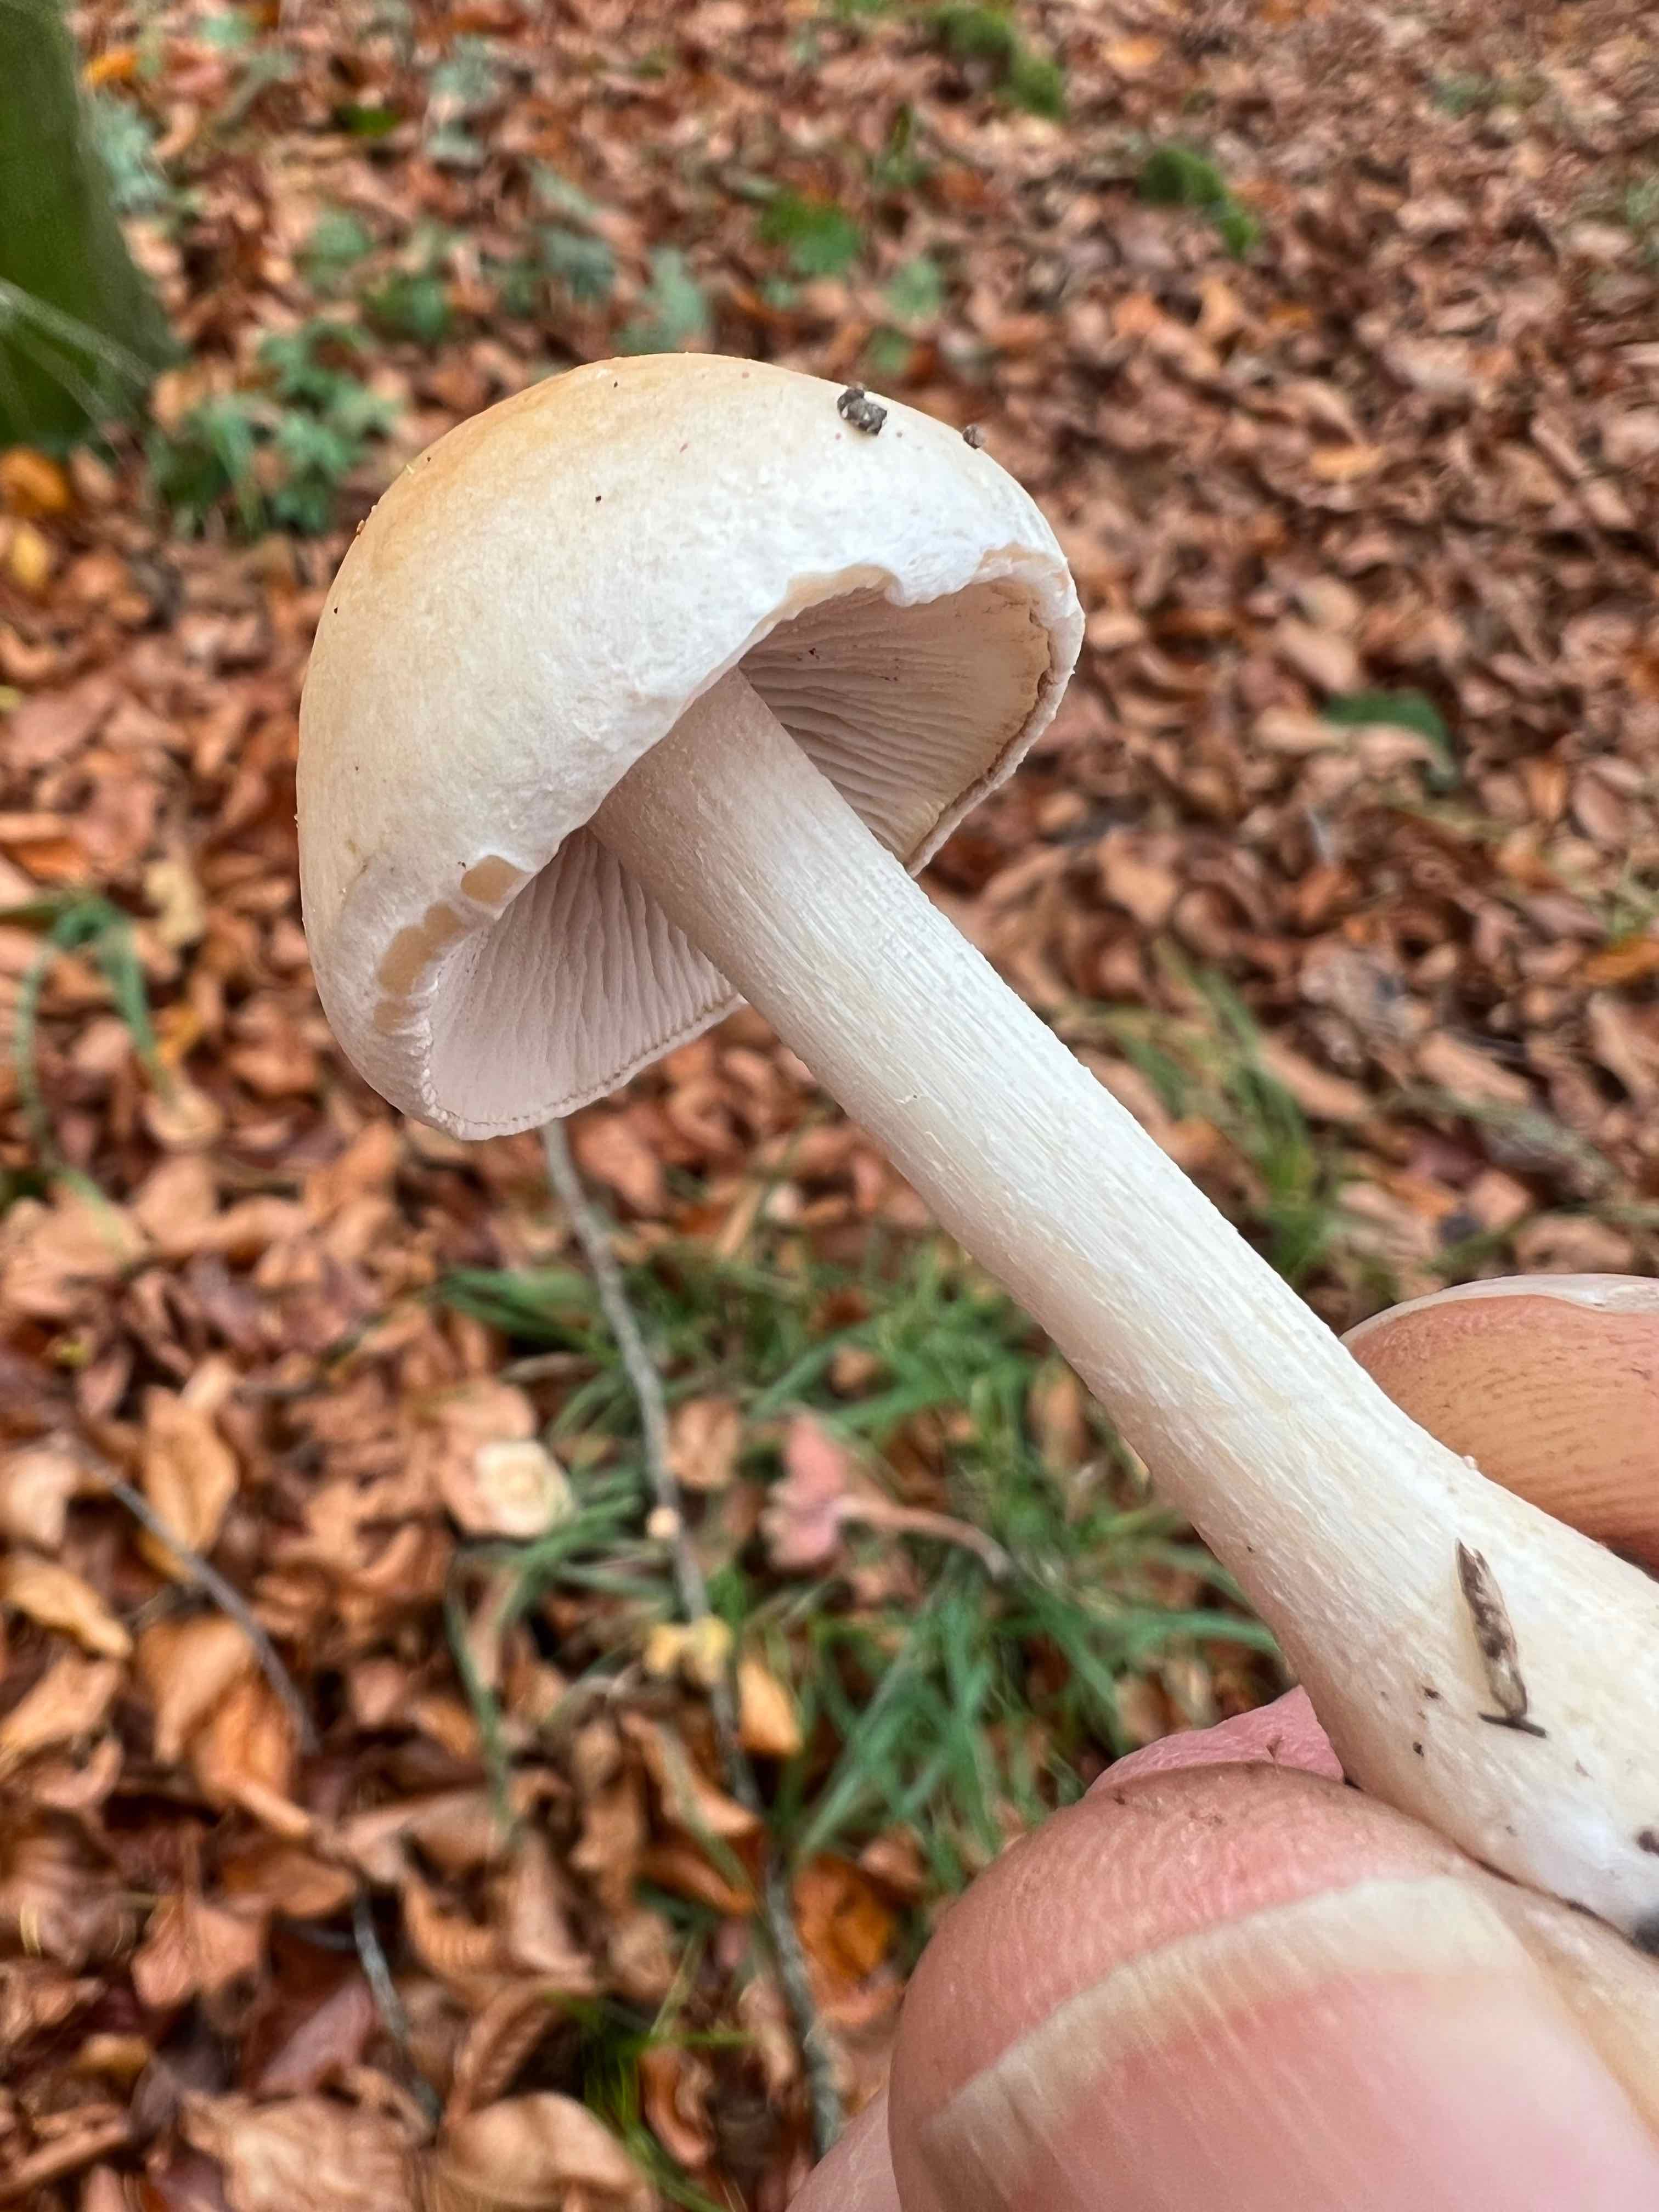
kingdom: Fungi
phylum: Basidiomycota
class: Agaricomycetes
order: Agaricales
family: Hymenogastraceae
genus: Hebeloma
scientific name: Hebeloma
